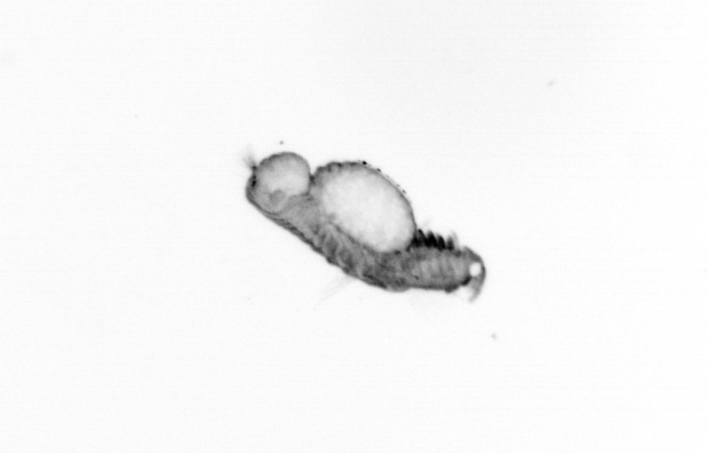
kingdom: Animalia
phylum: Annelida
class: Polychaeta
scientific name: Polychaeta
